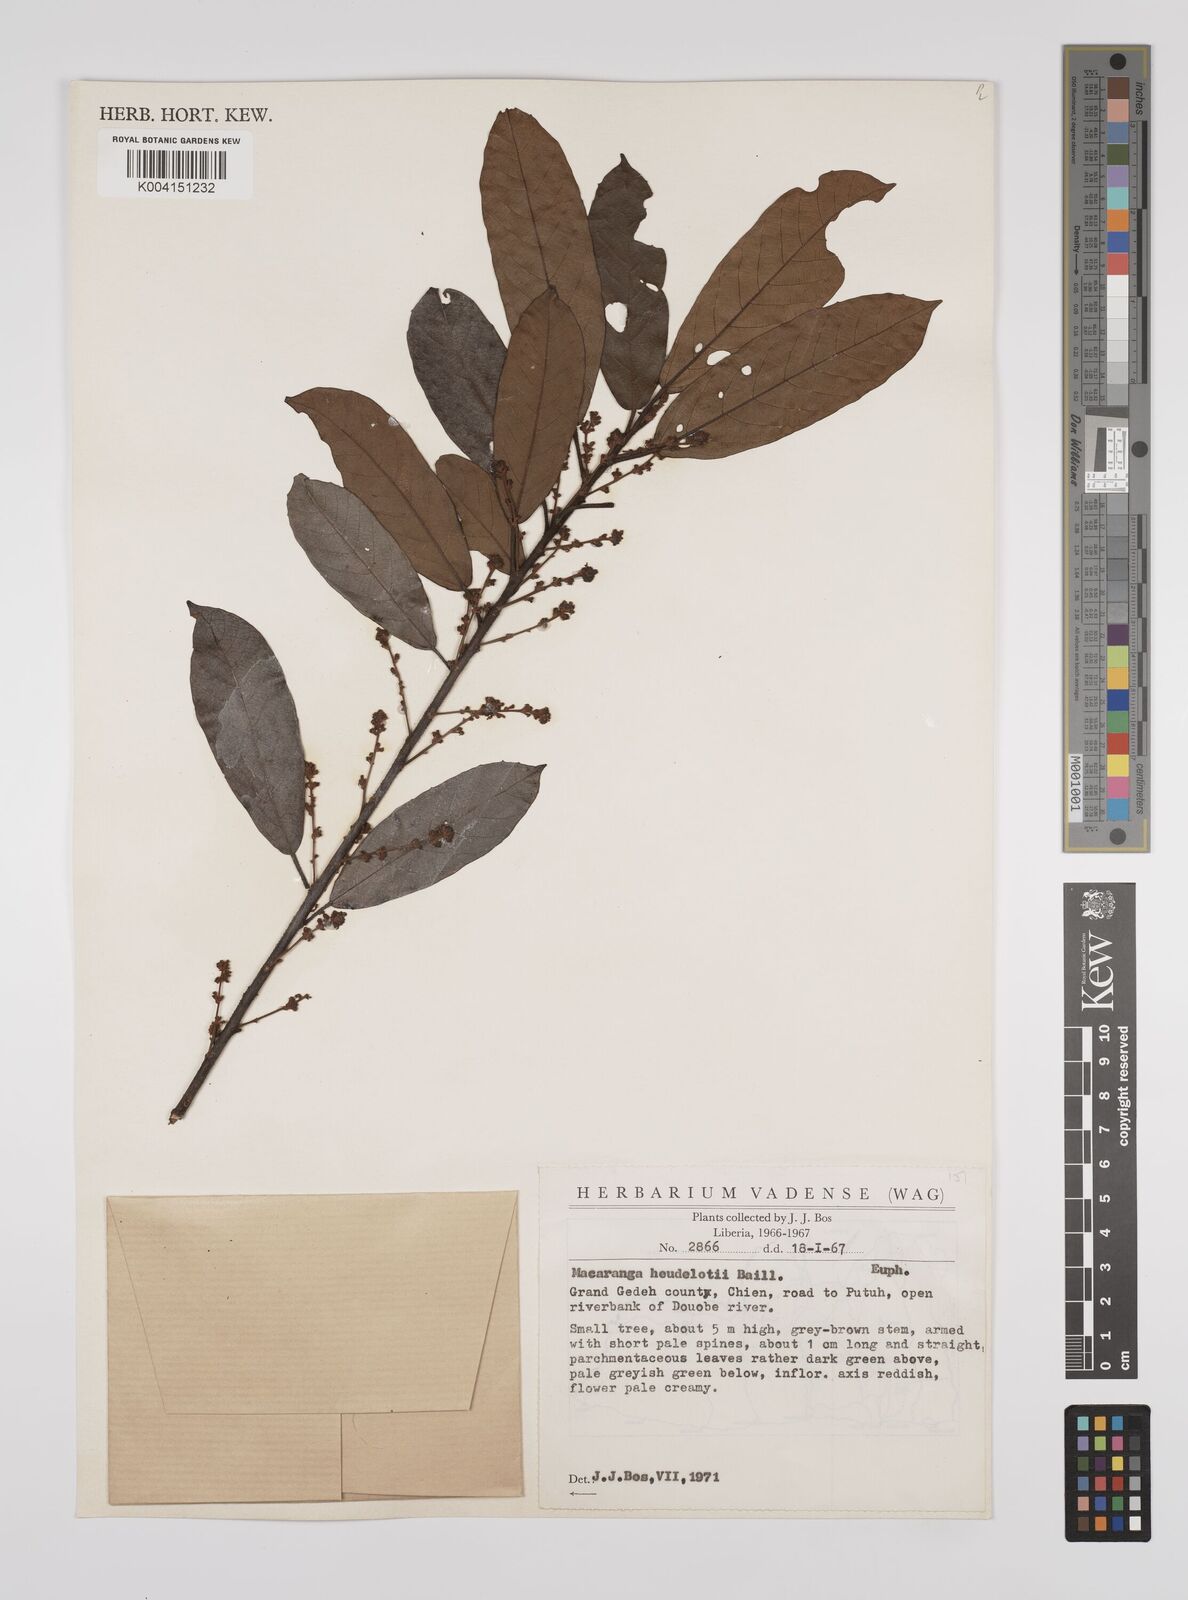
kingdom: Plantae
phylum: Tracheophyta
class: Magnoliopsida
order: Malpighiales
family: Euphorbiaceae
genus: Macaranga
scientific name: Macaranga heudelotii
